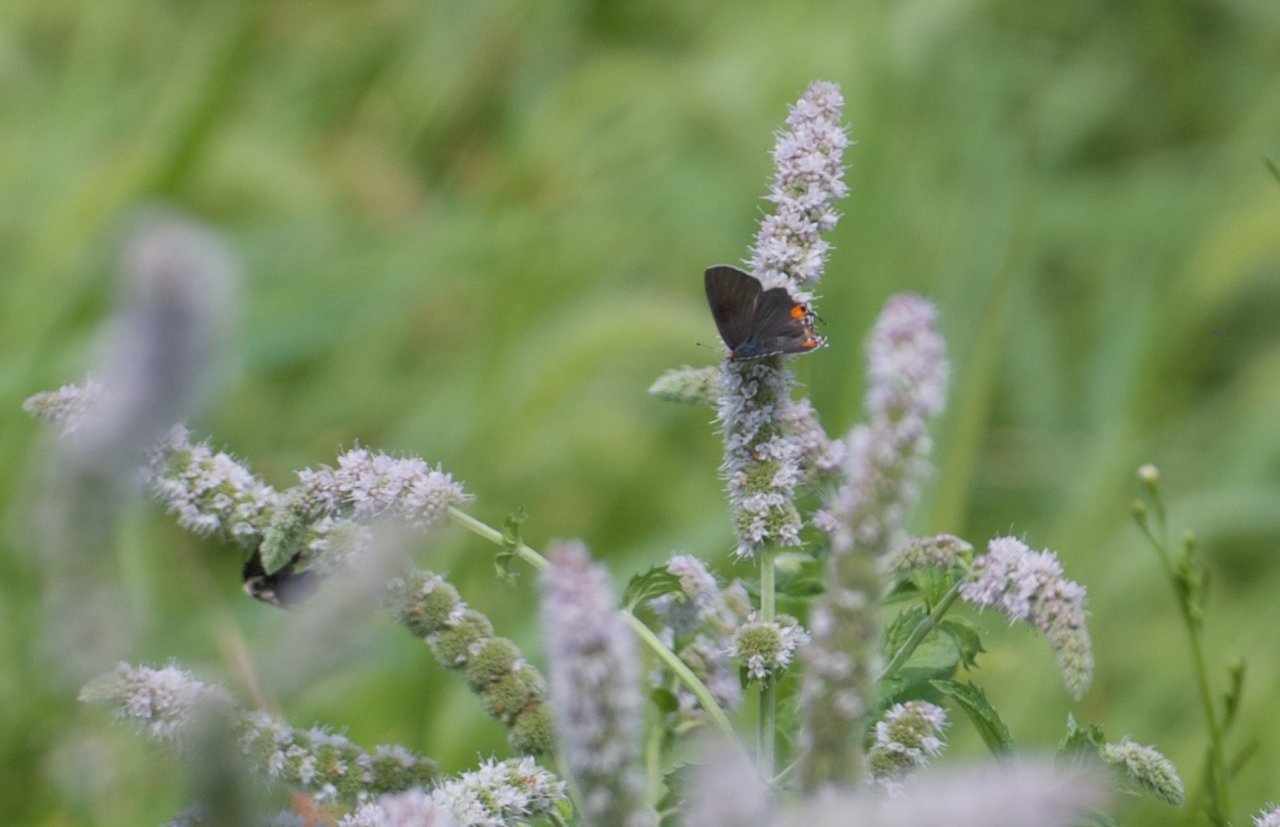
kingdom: Animalia
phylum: Arthropoda
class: Insecta
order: Lepidoptera
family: Lycaenidae
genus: Strymon
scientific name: Strymon melinus
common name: Gray Hairstreak
